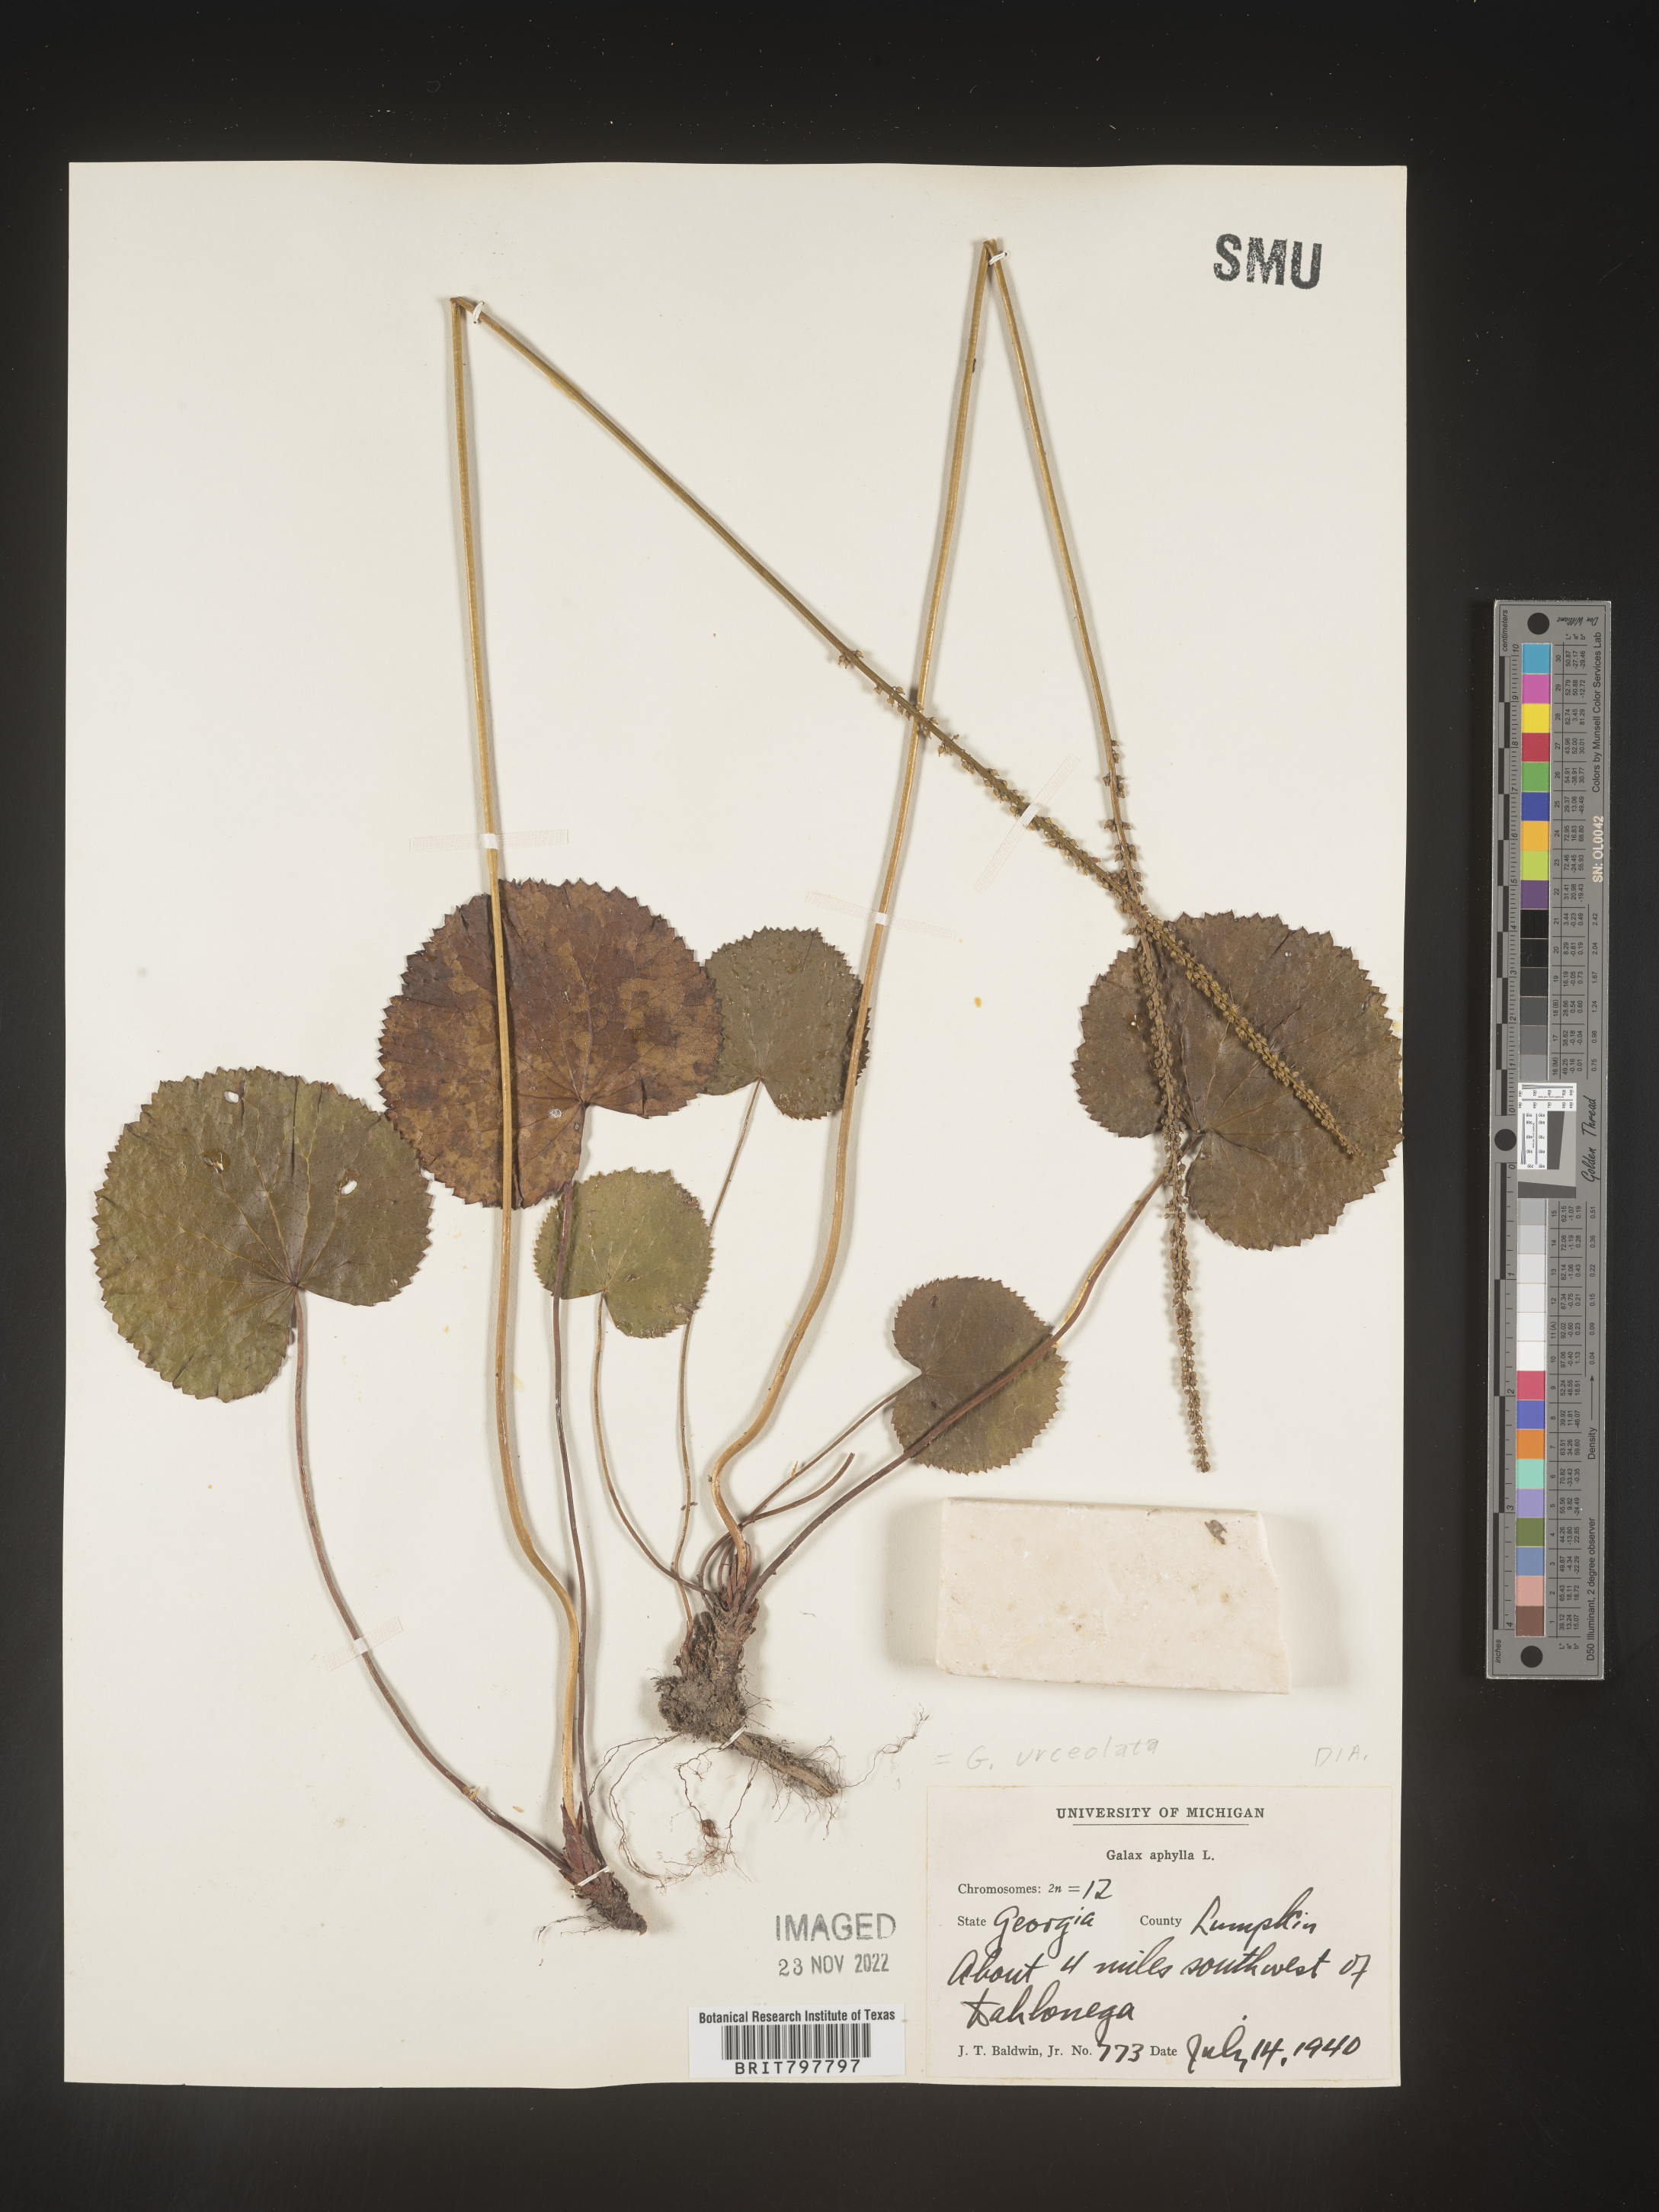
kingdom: Plantae
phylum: Tracheophyta
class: Magnoliopsida
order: Ericales
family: Diapensiaceae
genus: Galax
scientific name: Galax
